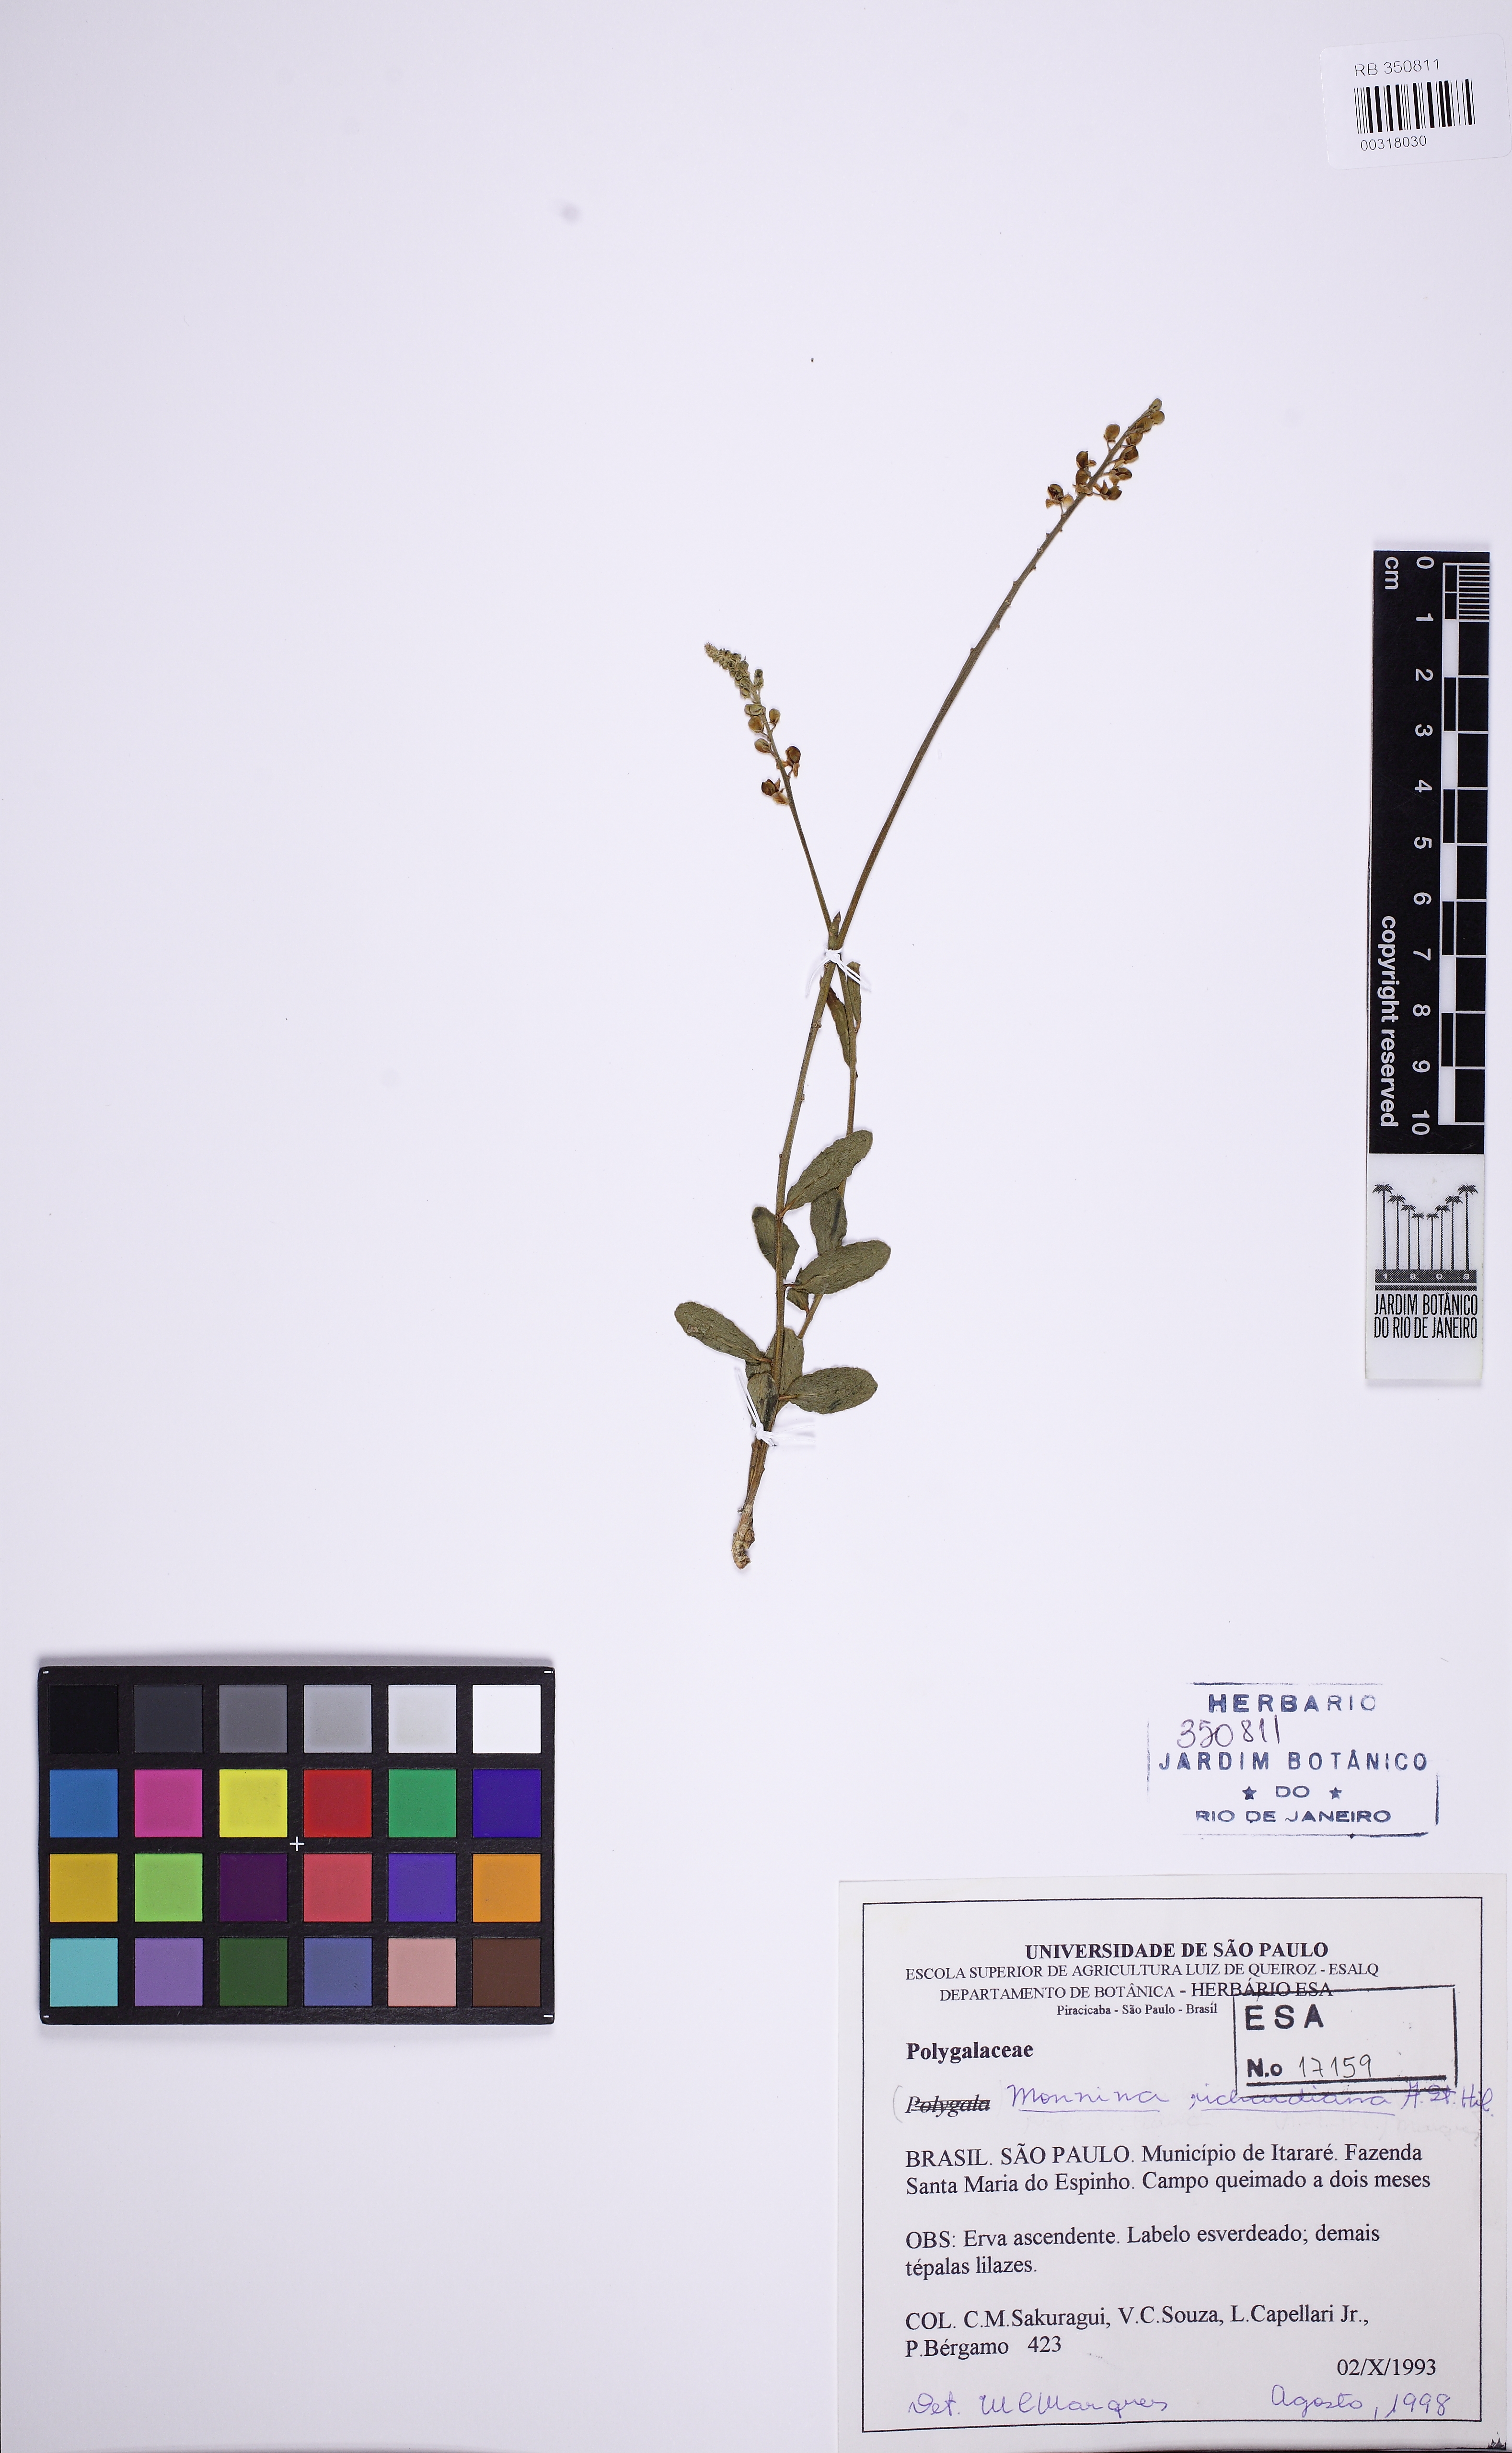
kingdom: Plantae
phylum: Tracheophyta
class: Magnoliopsida
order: Fabales
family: Polygalaceae
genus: Monnina
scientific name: Monnina richardiana
